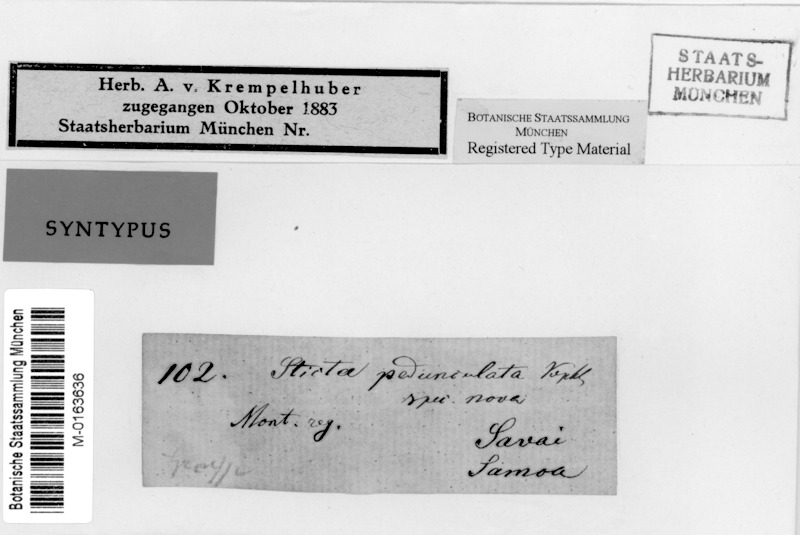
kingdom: Fungi
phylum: Ascomycota
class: Lecanoromycetes
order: Peltigerales
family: Lobariaceae
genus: Sticta
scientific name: Sticta pedunculata
